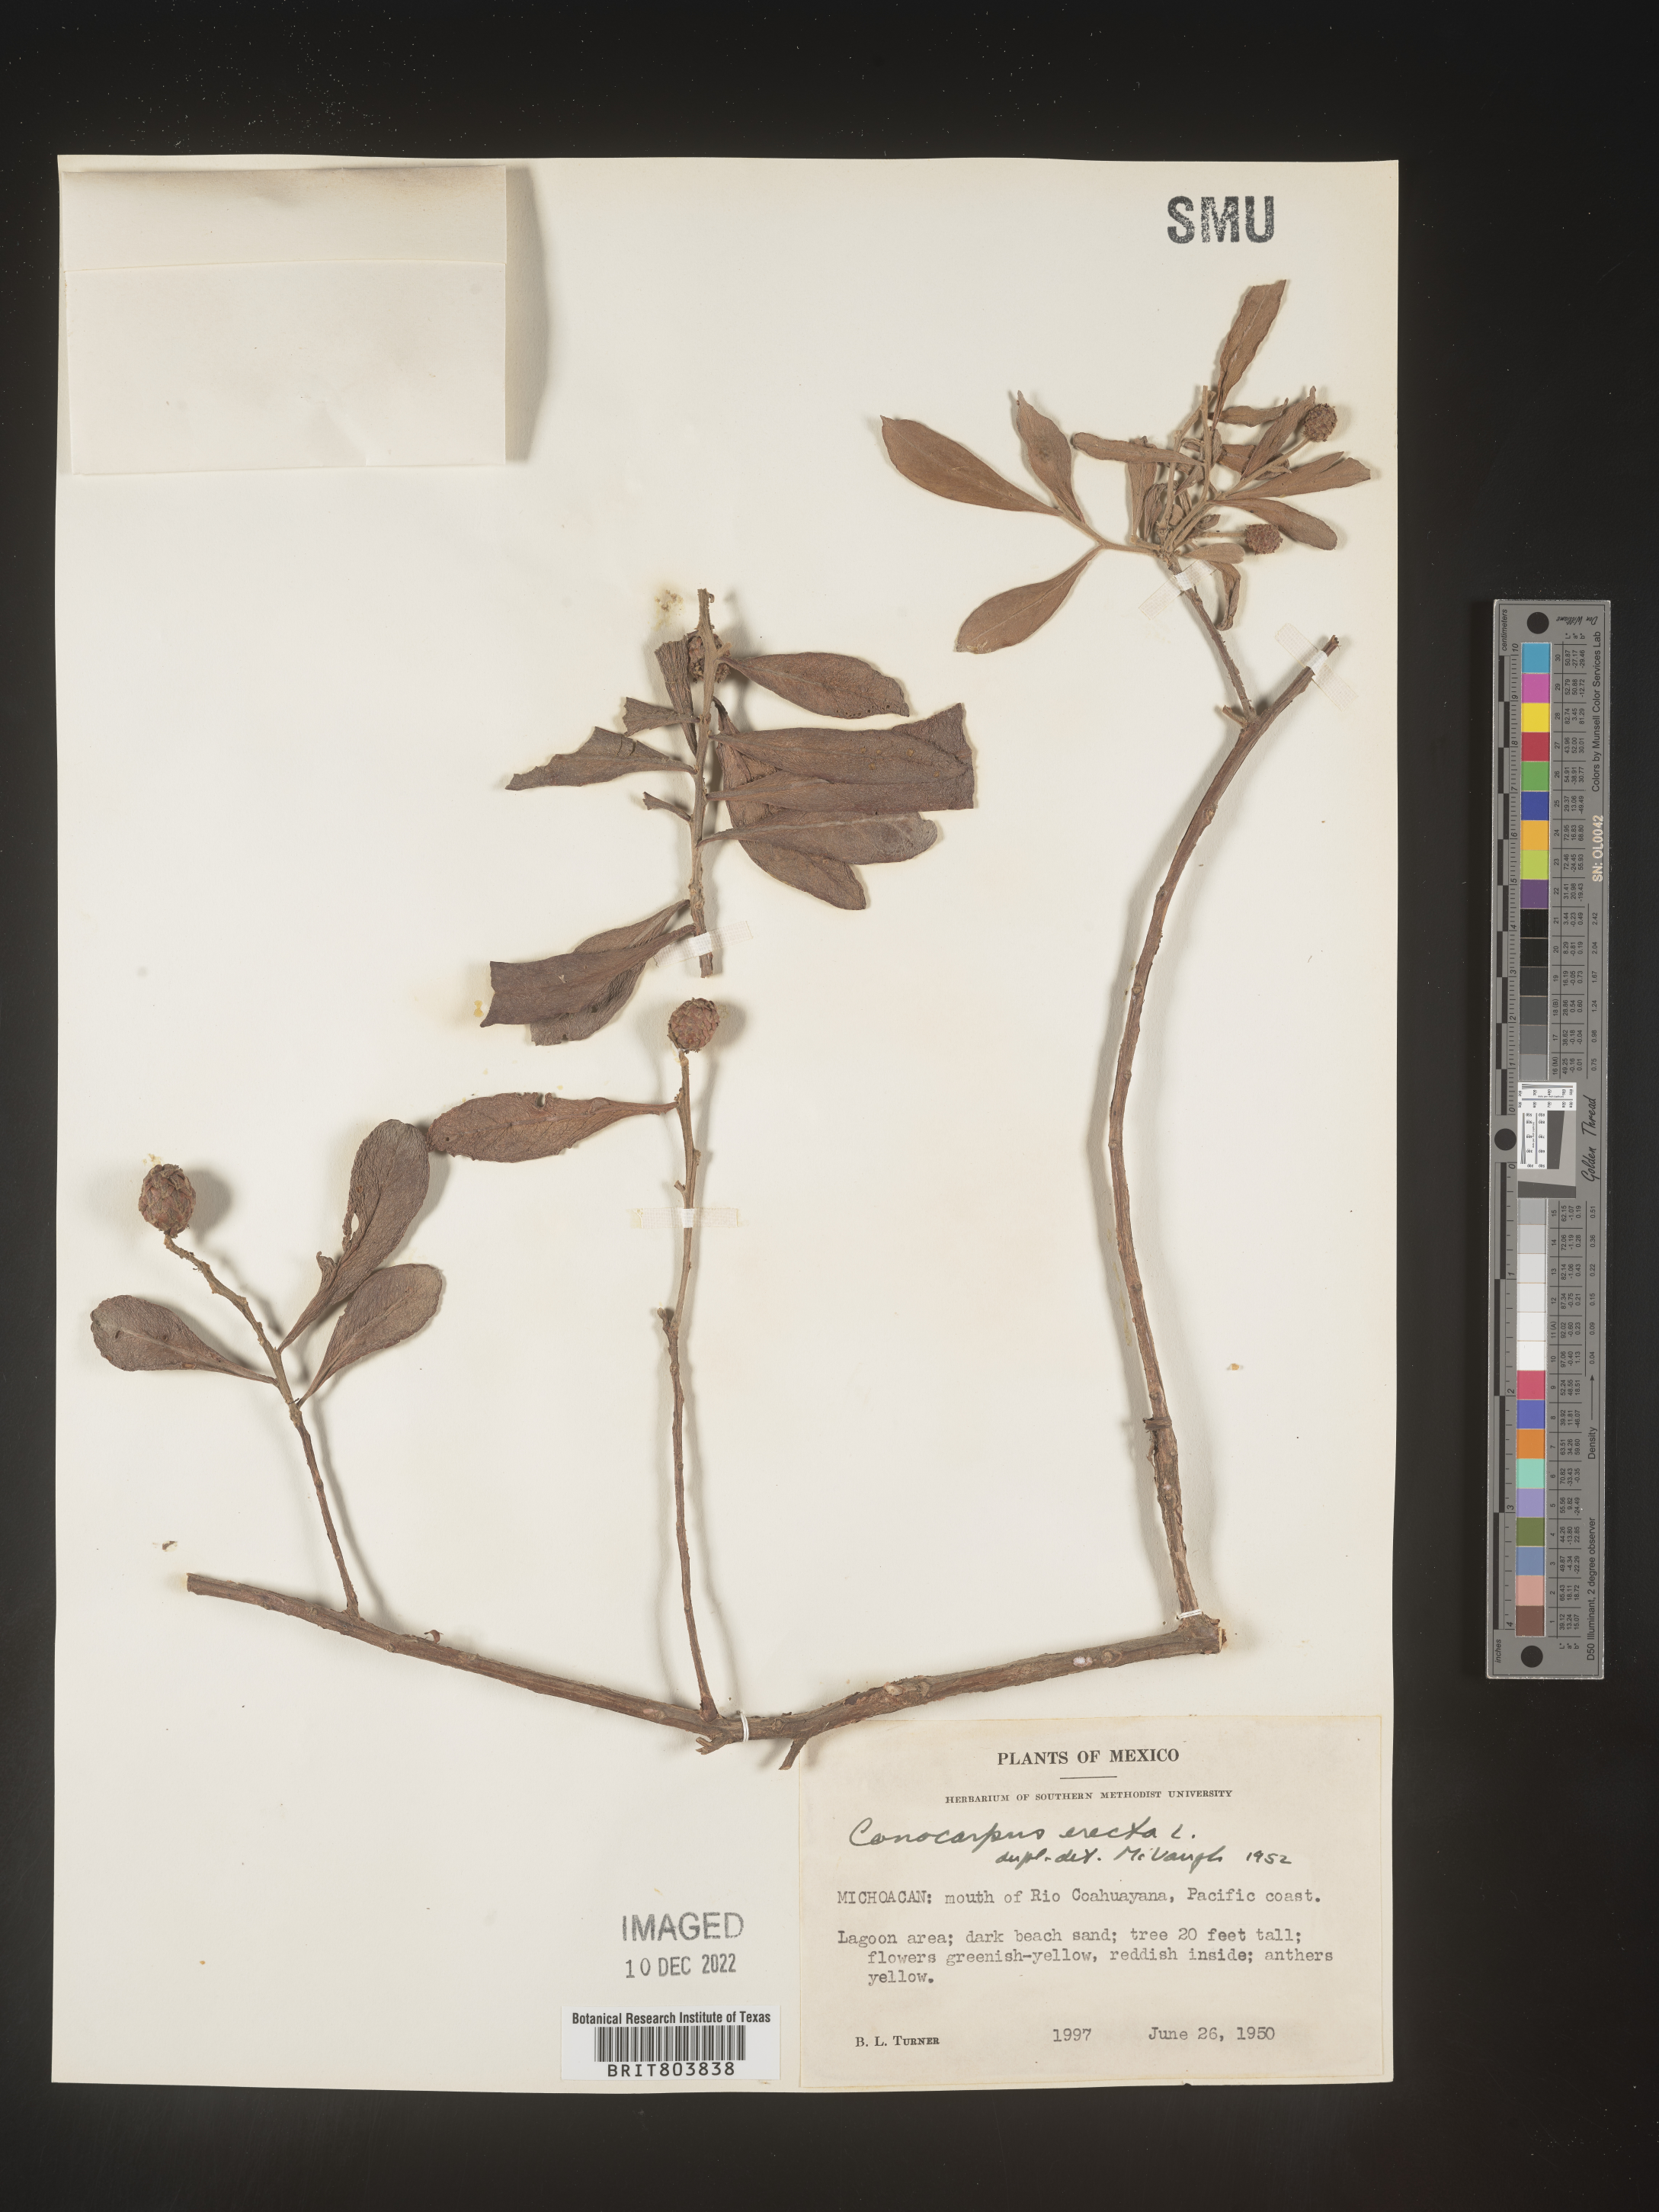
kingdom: Plantae
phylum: Tracheophyta
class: Magnoliopsida
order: Myrtales
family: Combretaceae
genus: Conocarpus
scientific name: Conocarpus
